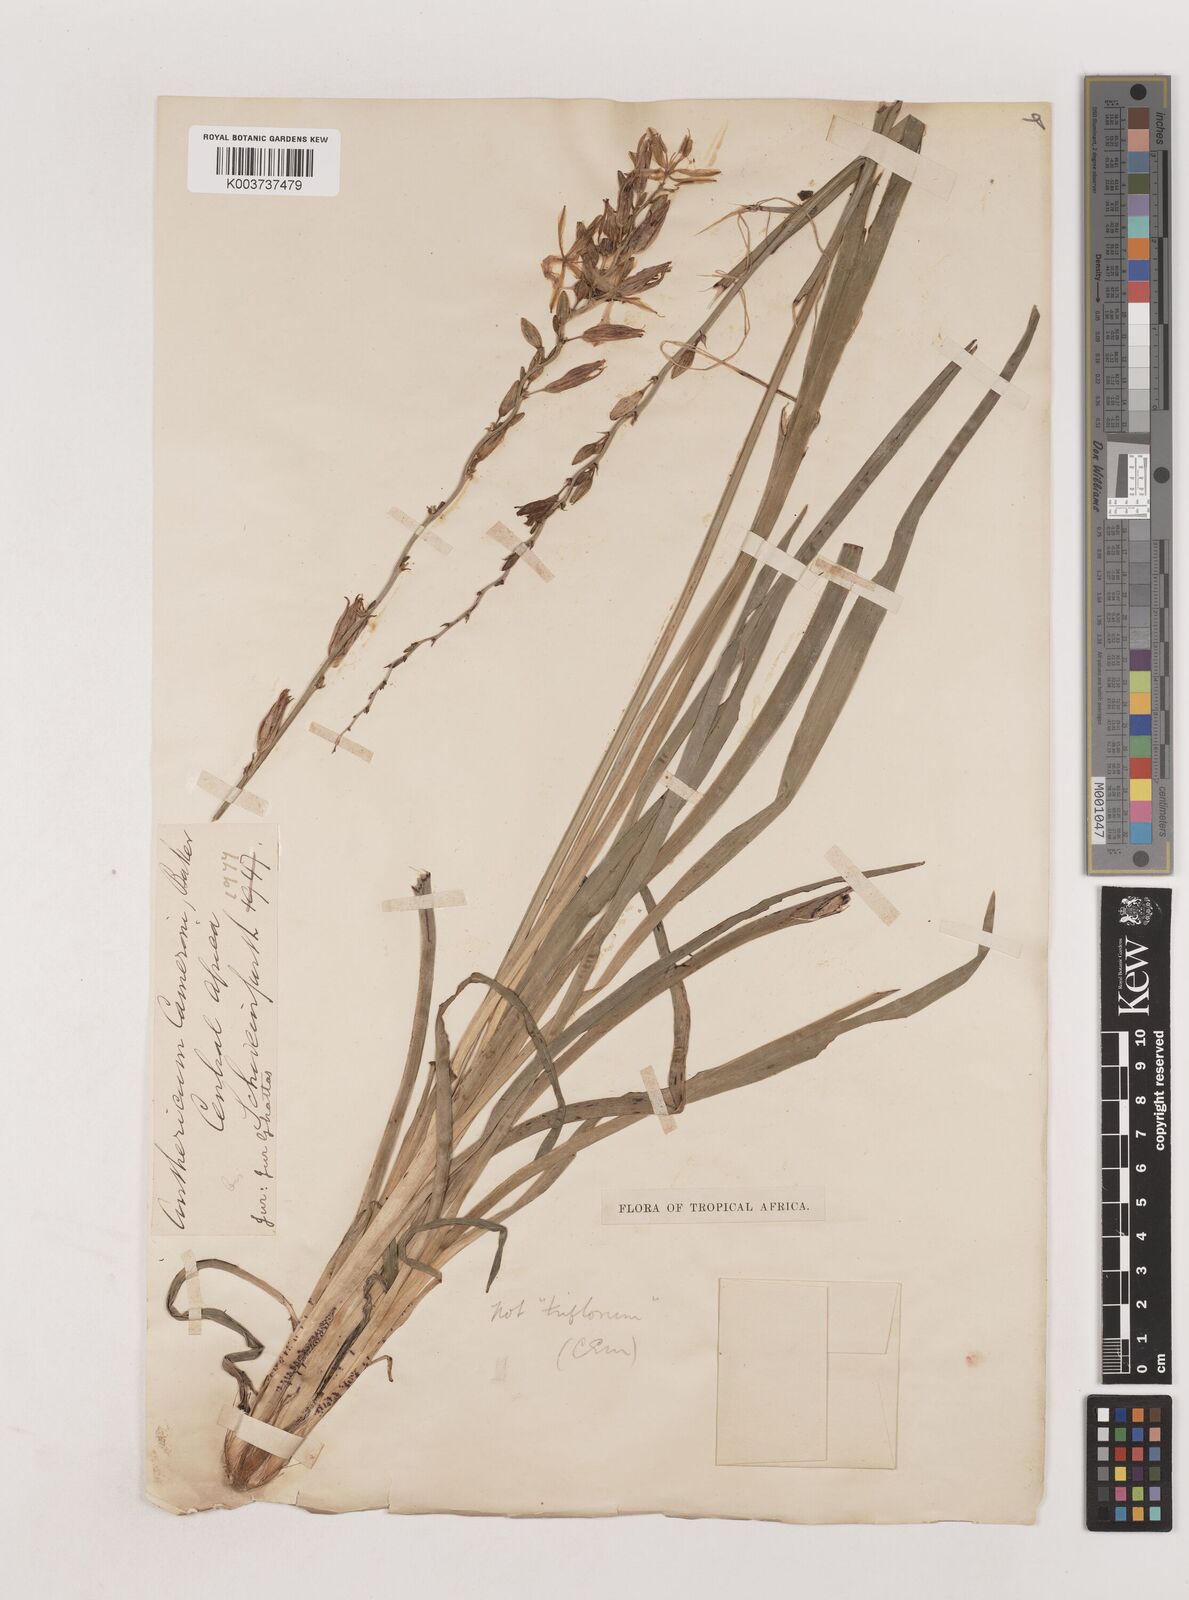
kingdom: Plantae
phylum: Tracheophyta
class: Liliopsida
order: Asparagales
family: Asparagaceae
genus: Chlorophytum
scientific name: Chlorophytum cameronii
